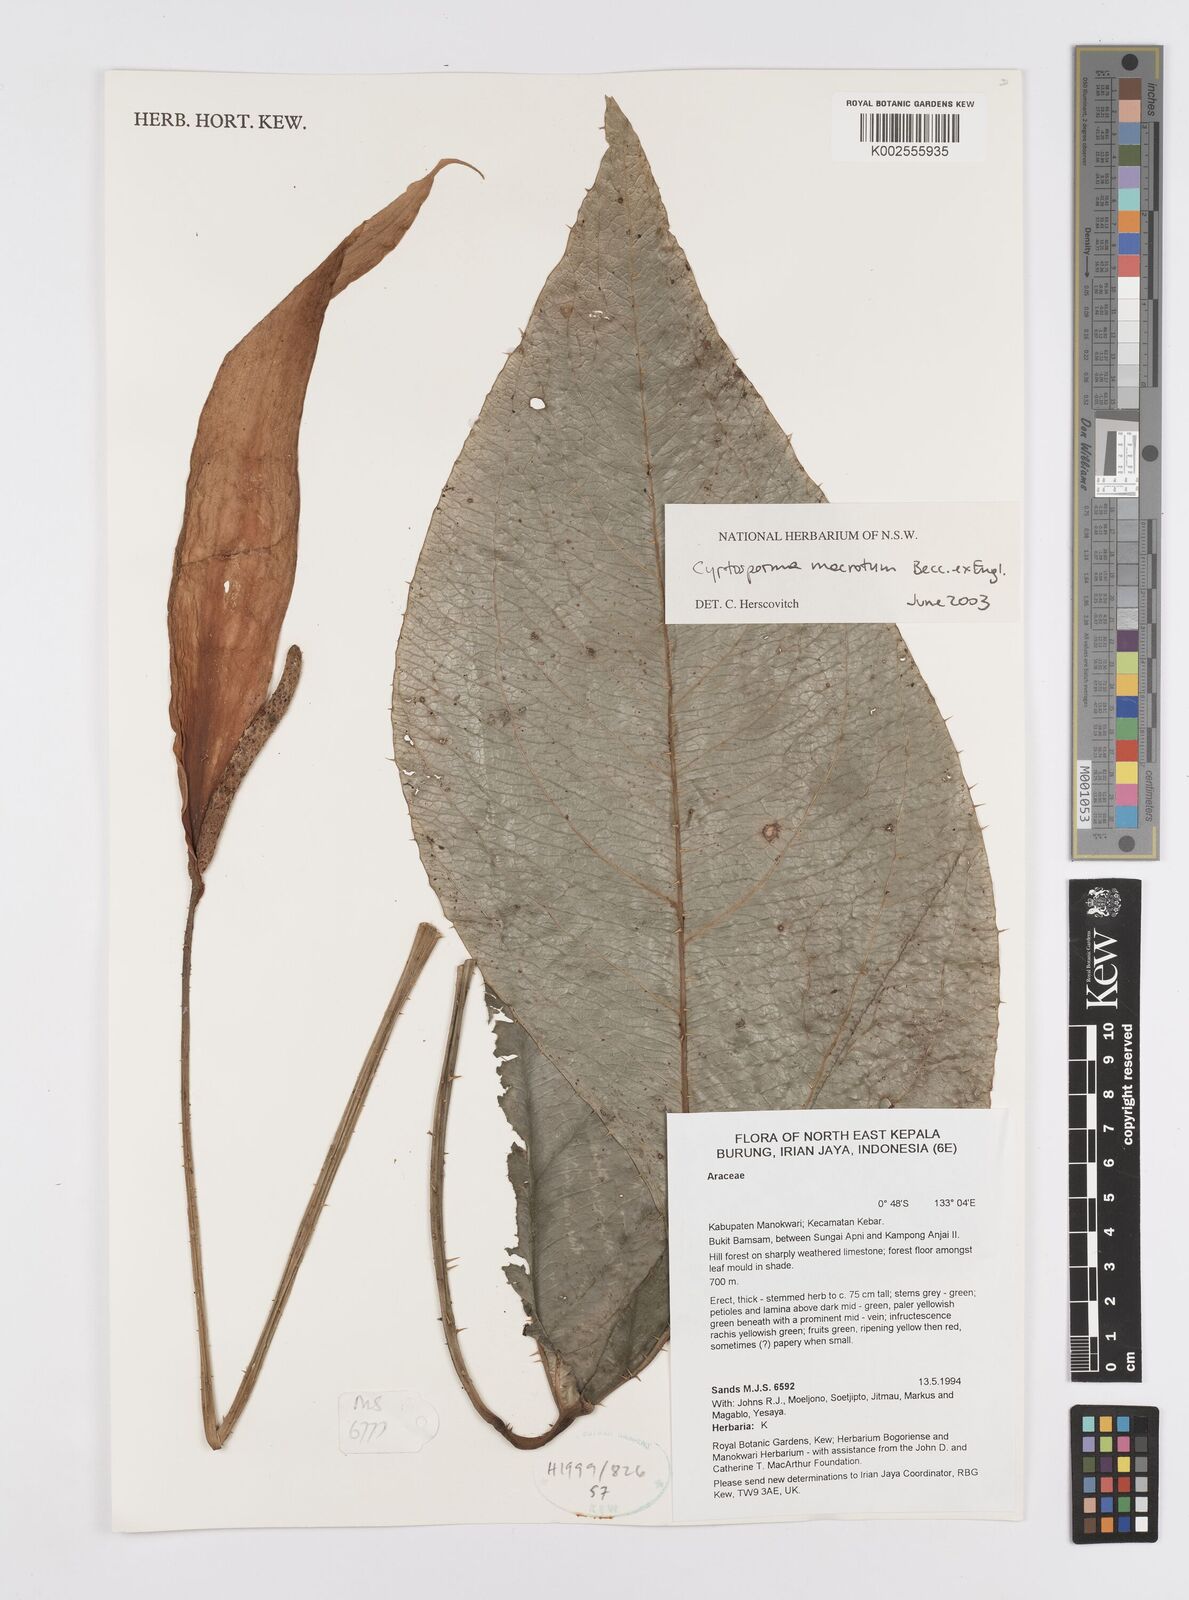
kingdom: Plantae
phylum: Tracheophyta
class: Liliopsida
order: Alismatales
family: Araceae
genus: Cyrtosperma
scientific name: Cyrtosperma macrotum
